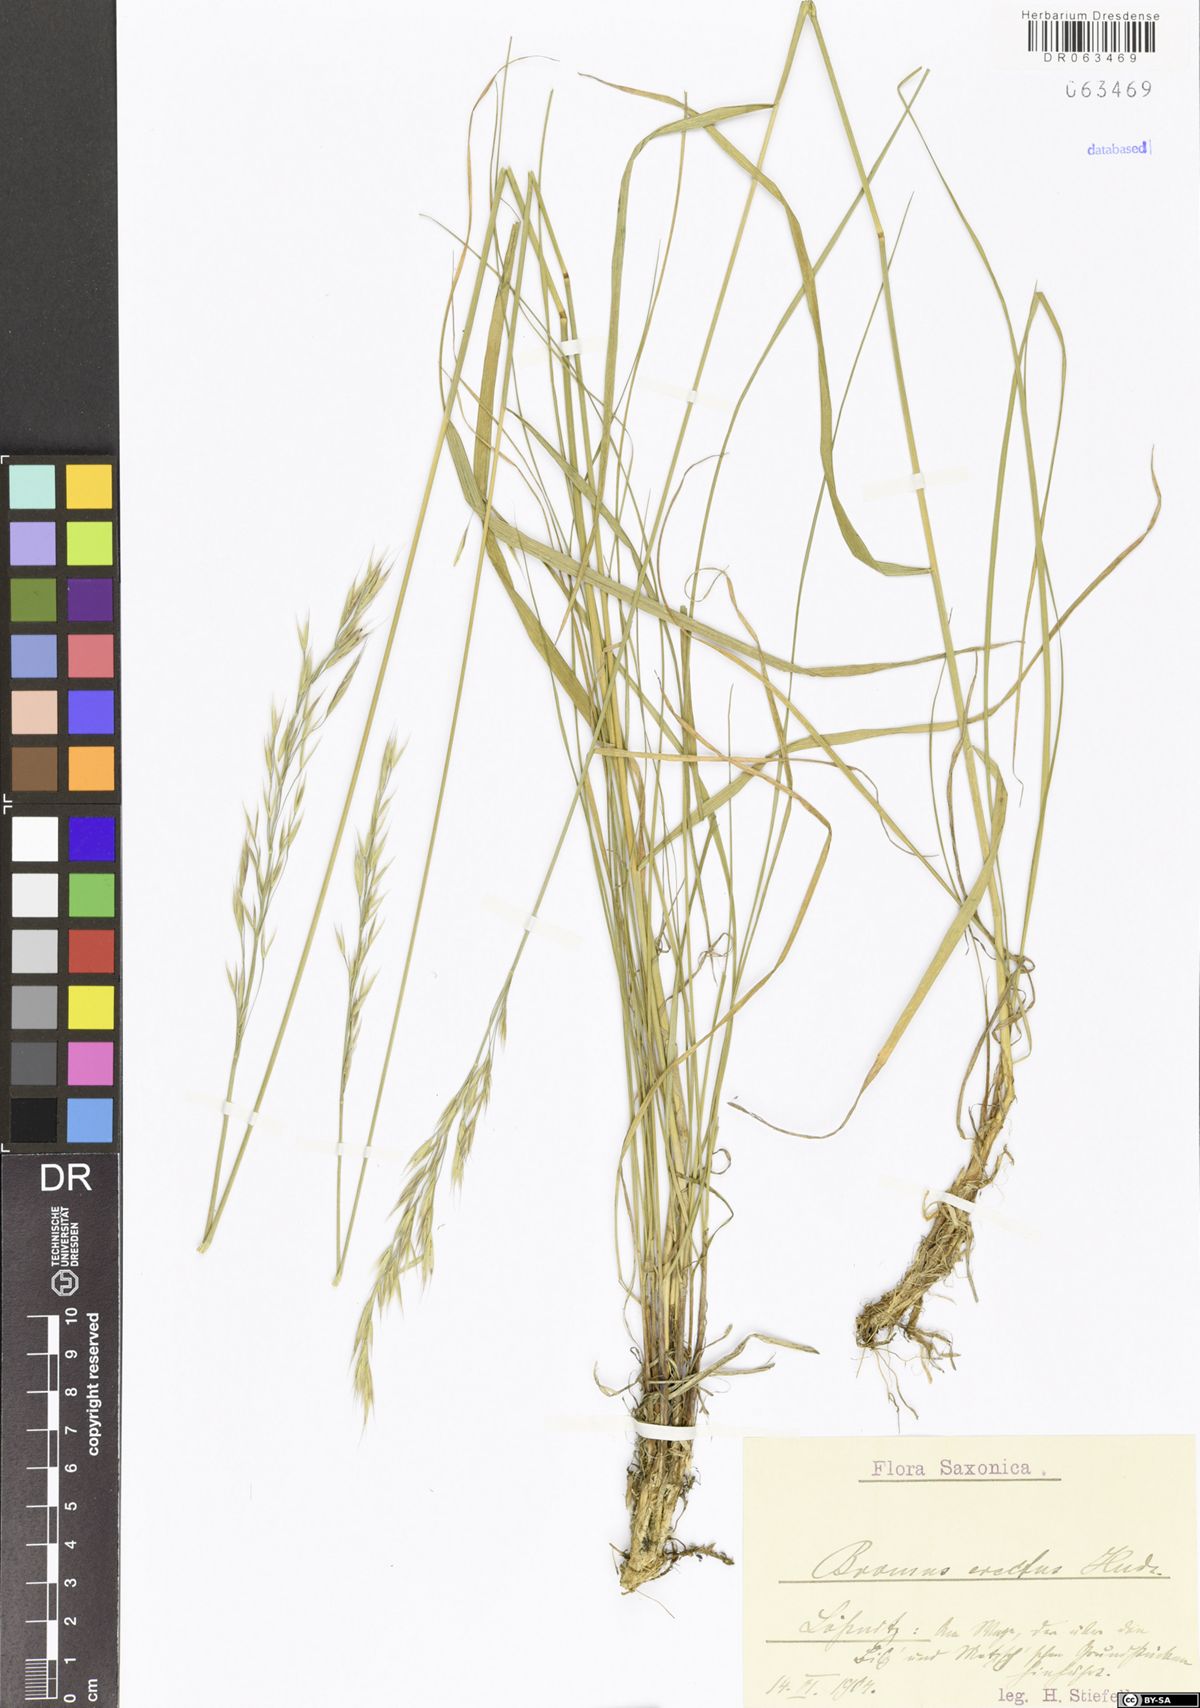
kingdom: Plantae
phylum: Tracheophyta
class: Liliopsida
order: Poales
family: Poaceae
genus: Bromus
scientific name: Bromus erectus
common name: Erect brome
